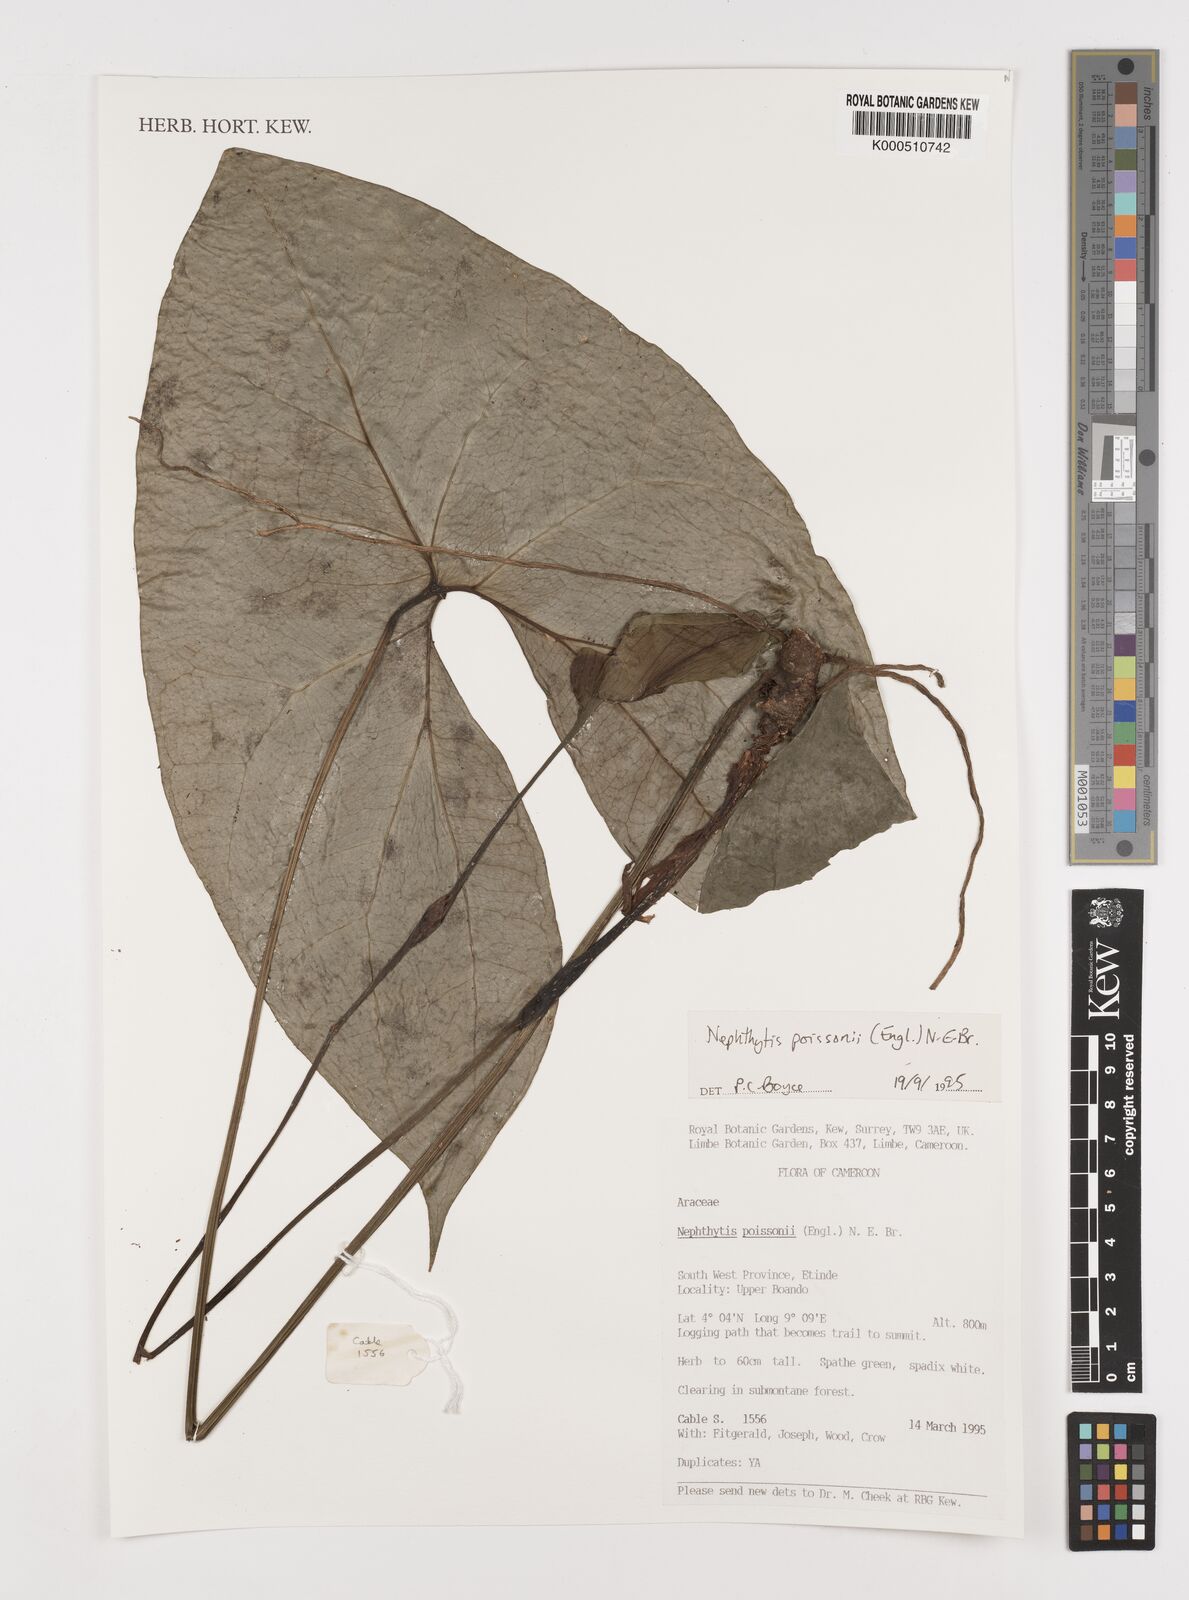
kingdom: Plantae
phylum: Tracheophyta
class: Liliopsida
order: Alismatales
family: Araceae
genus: Nephthytis
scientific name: Nephthytis poissonii
